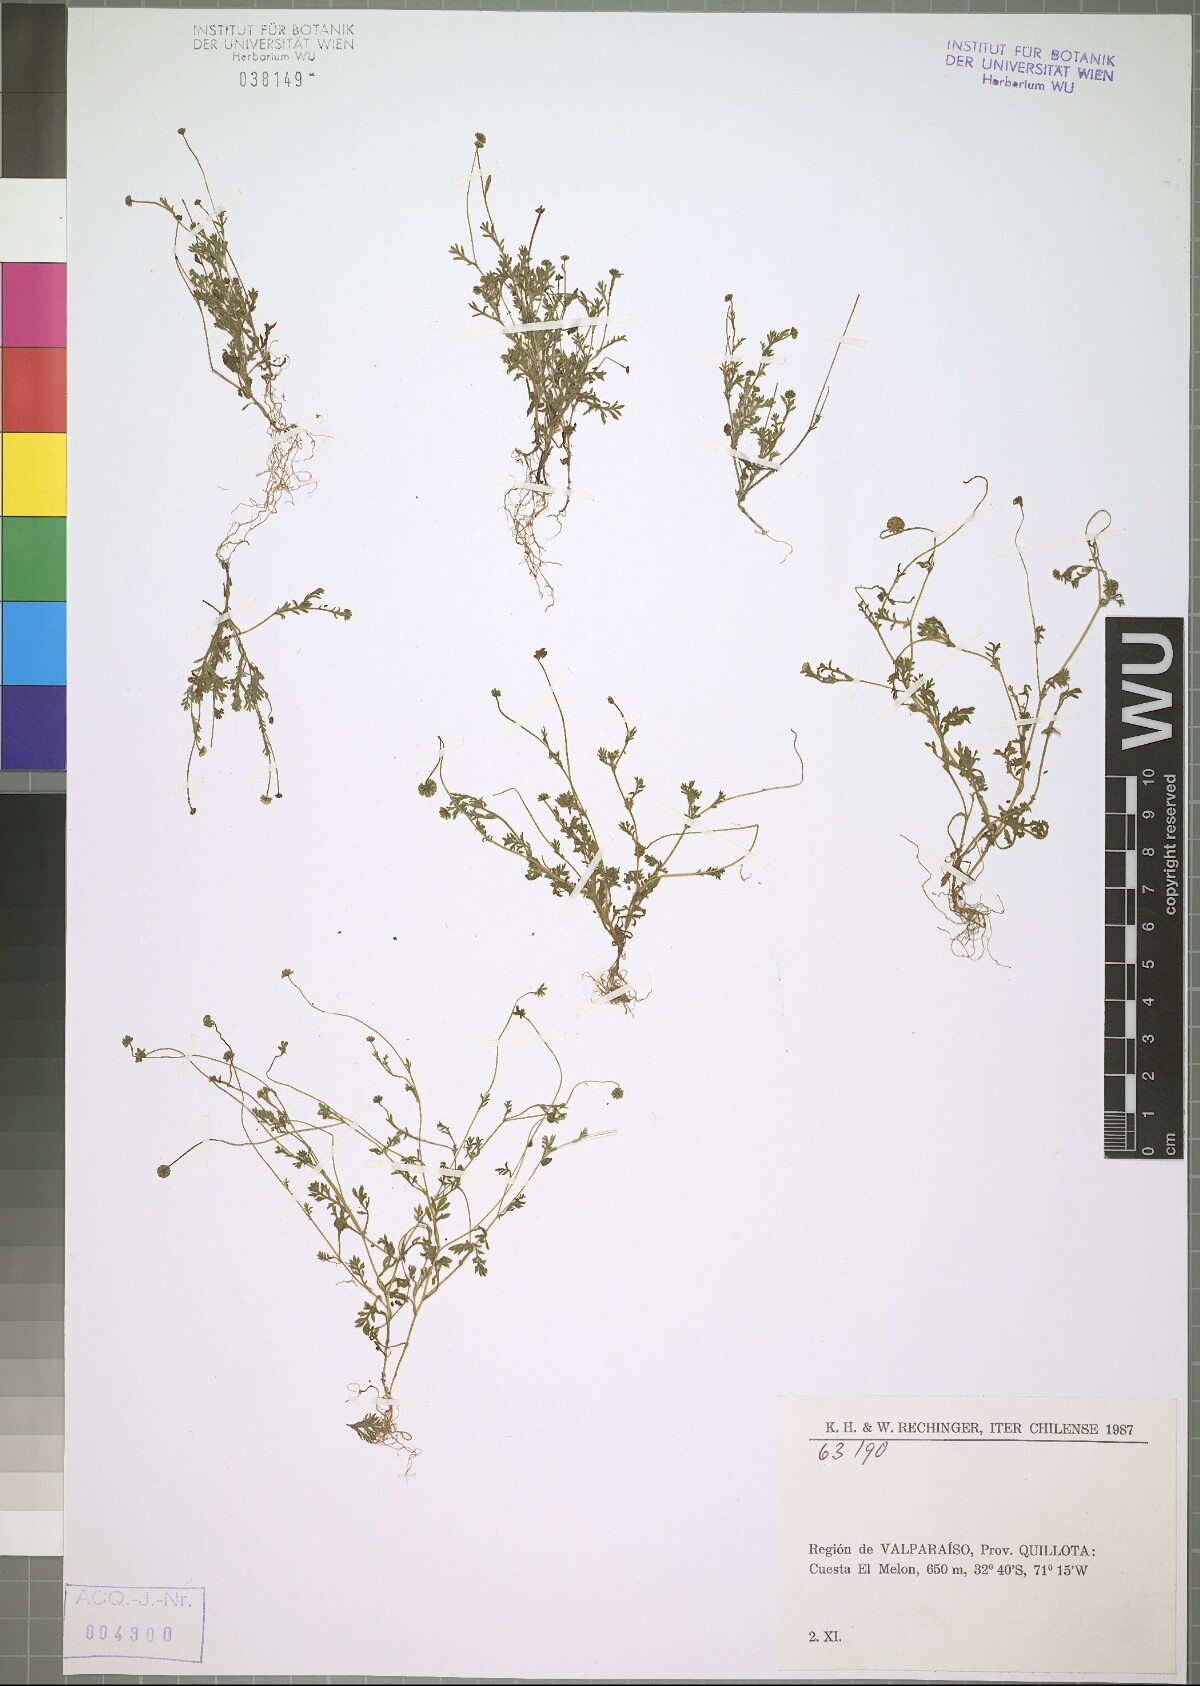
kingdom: Plantae
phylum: Tracheophyta
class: Magnoliopsida
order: Asterales
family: Asteraceae
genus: Cotula
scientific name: Cotula australis
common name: Australian waterbuttons
